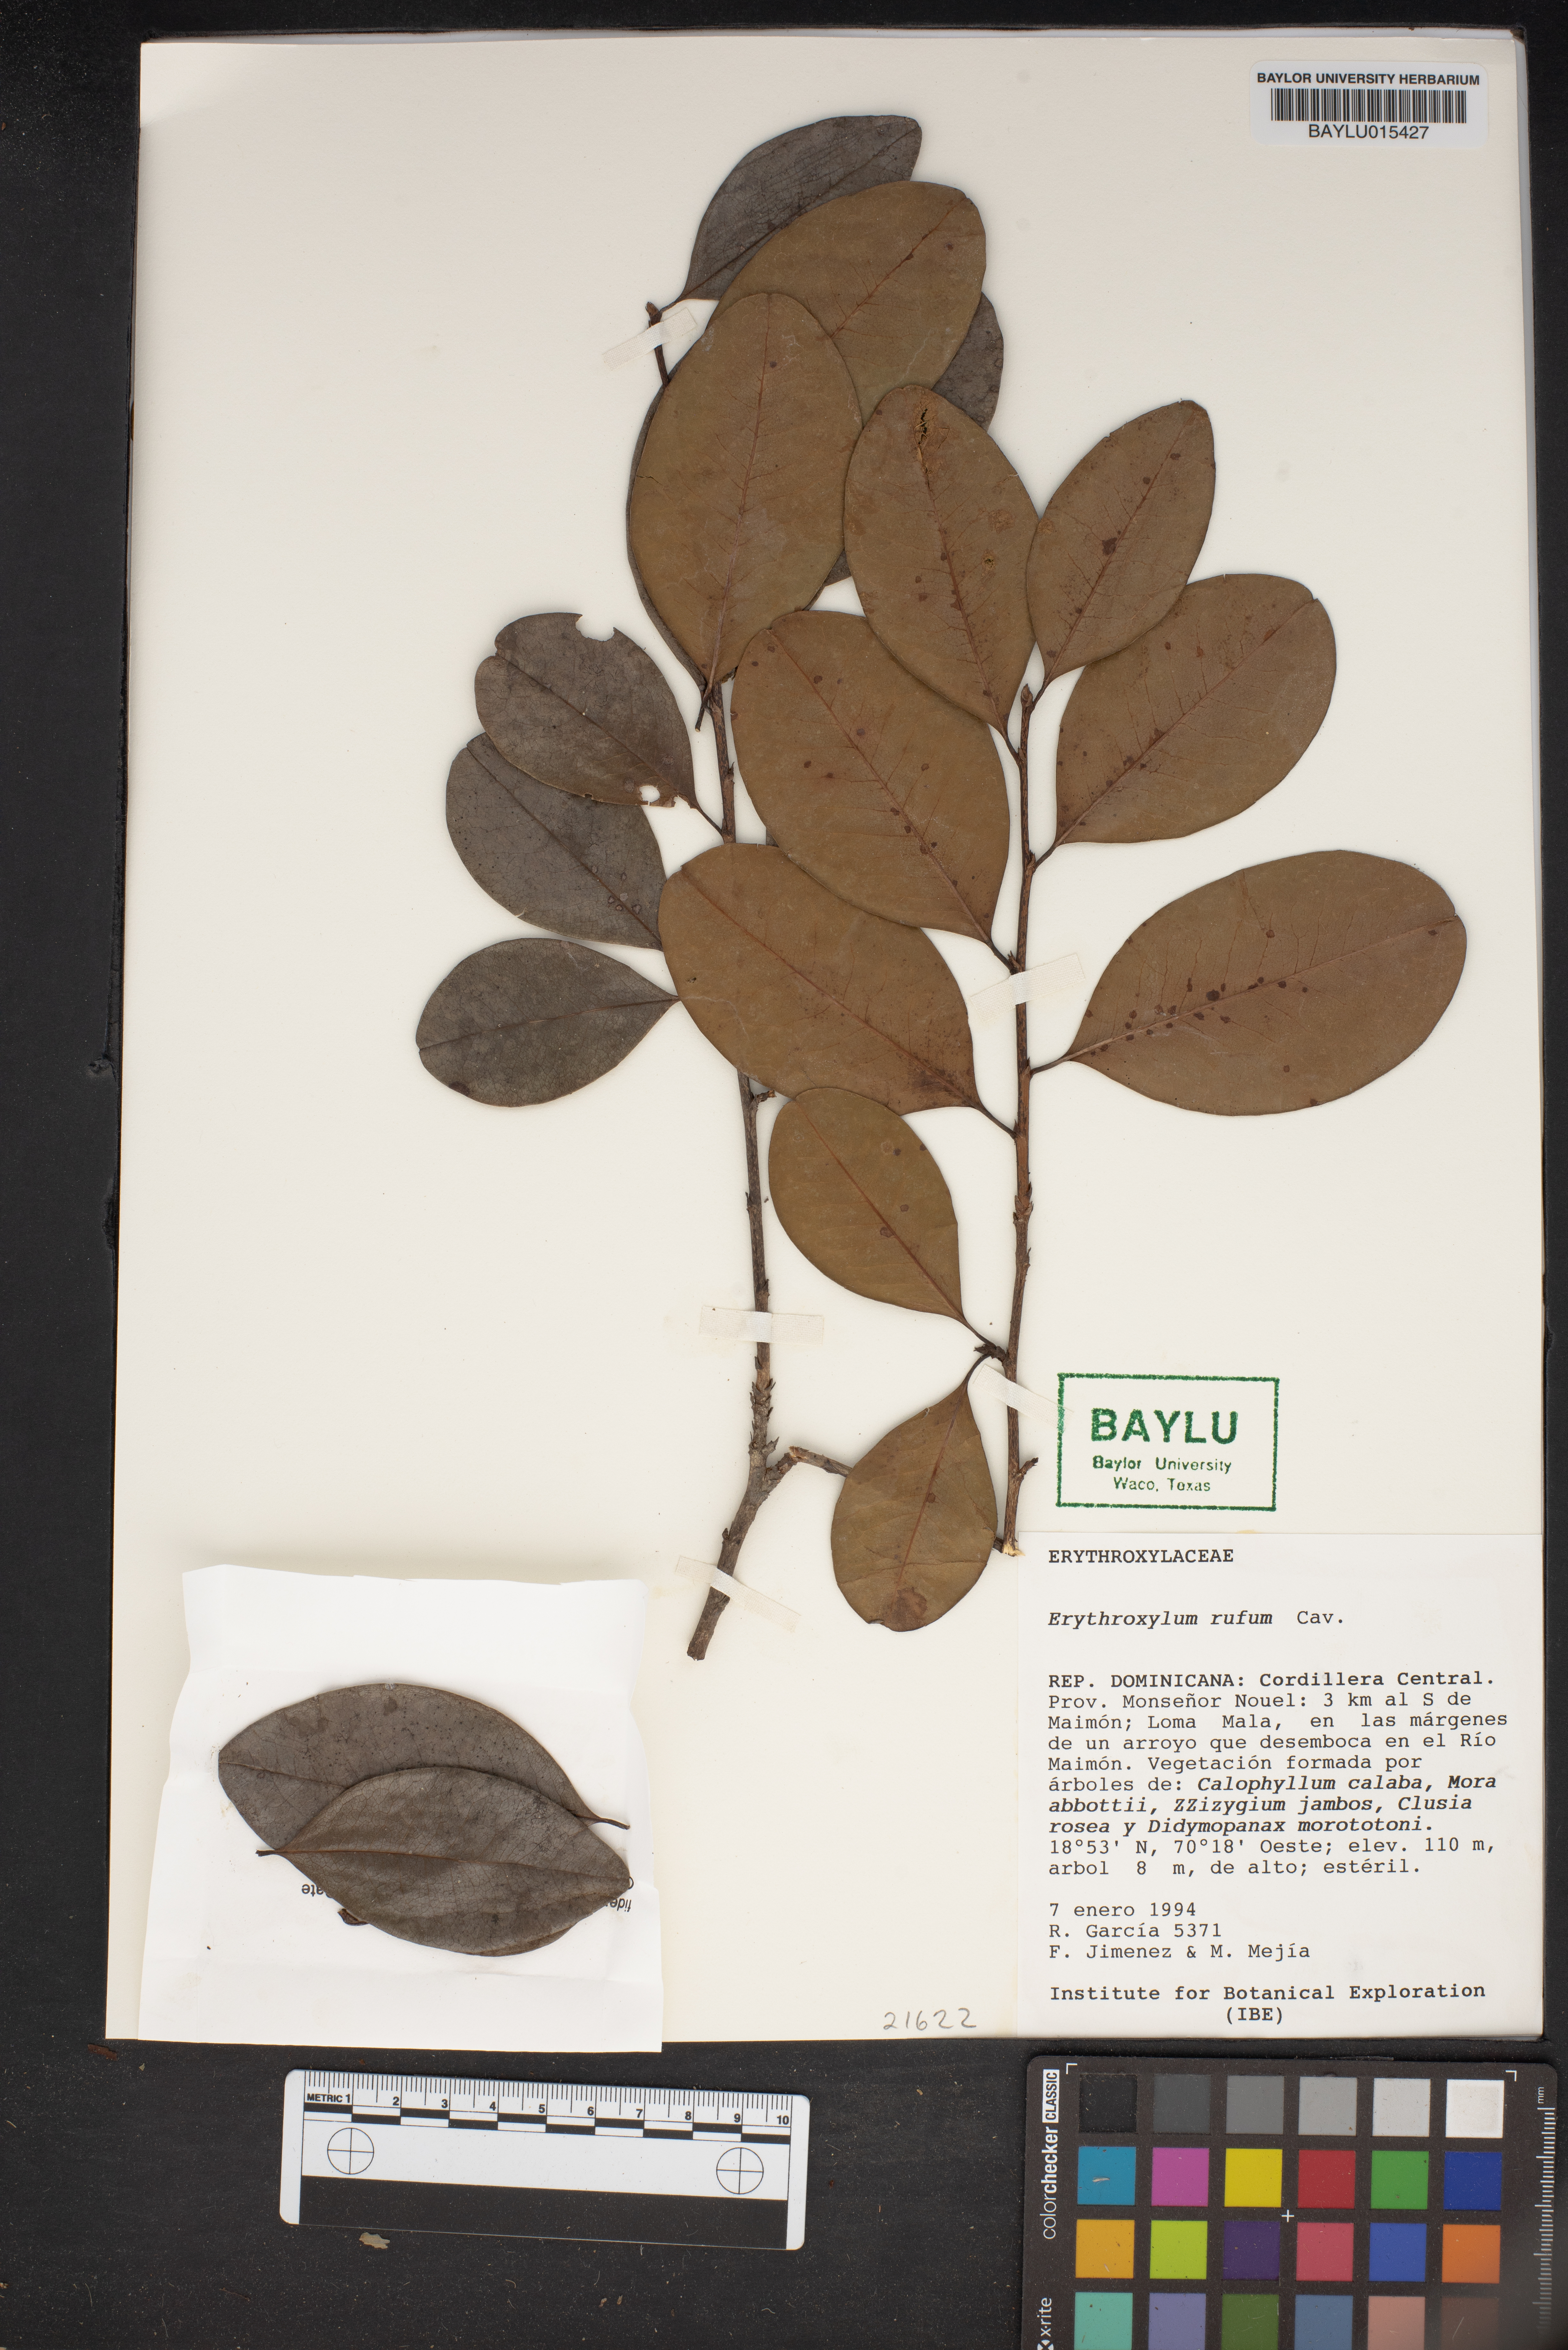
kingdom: Plantae
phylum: Tracheophyta
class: Magnoliopsida
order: Malpighiales
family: Erythroxylaceae
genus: Erythroxylum
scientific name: Erythroxylum rufum
